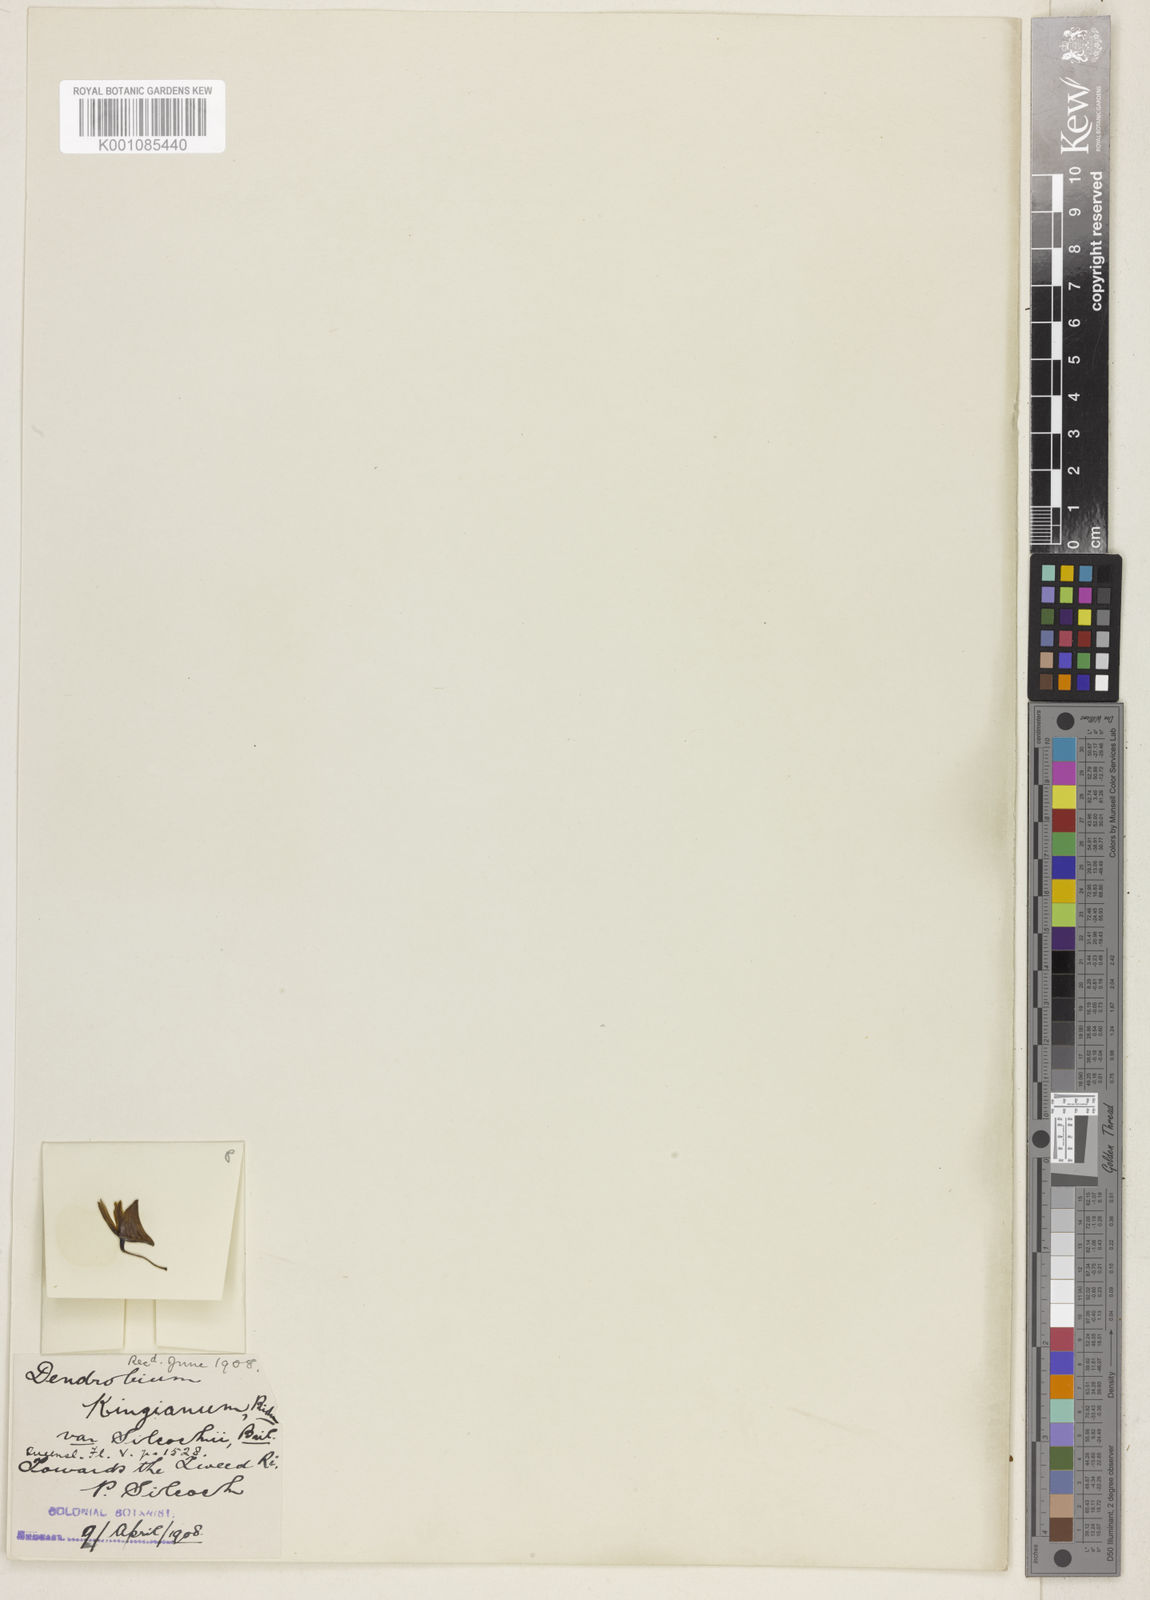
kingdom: Plantae
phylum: Tracheophyta
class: Liliopsida
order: Asparagales
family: Orchidaceae
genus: Dendrobium
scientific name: Dendrobium kingianum
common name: Pink rock orchid
